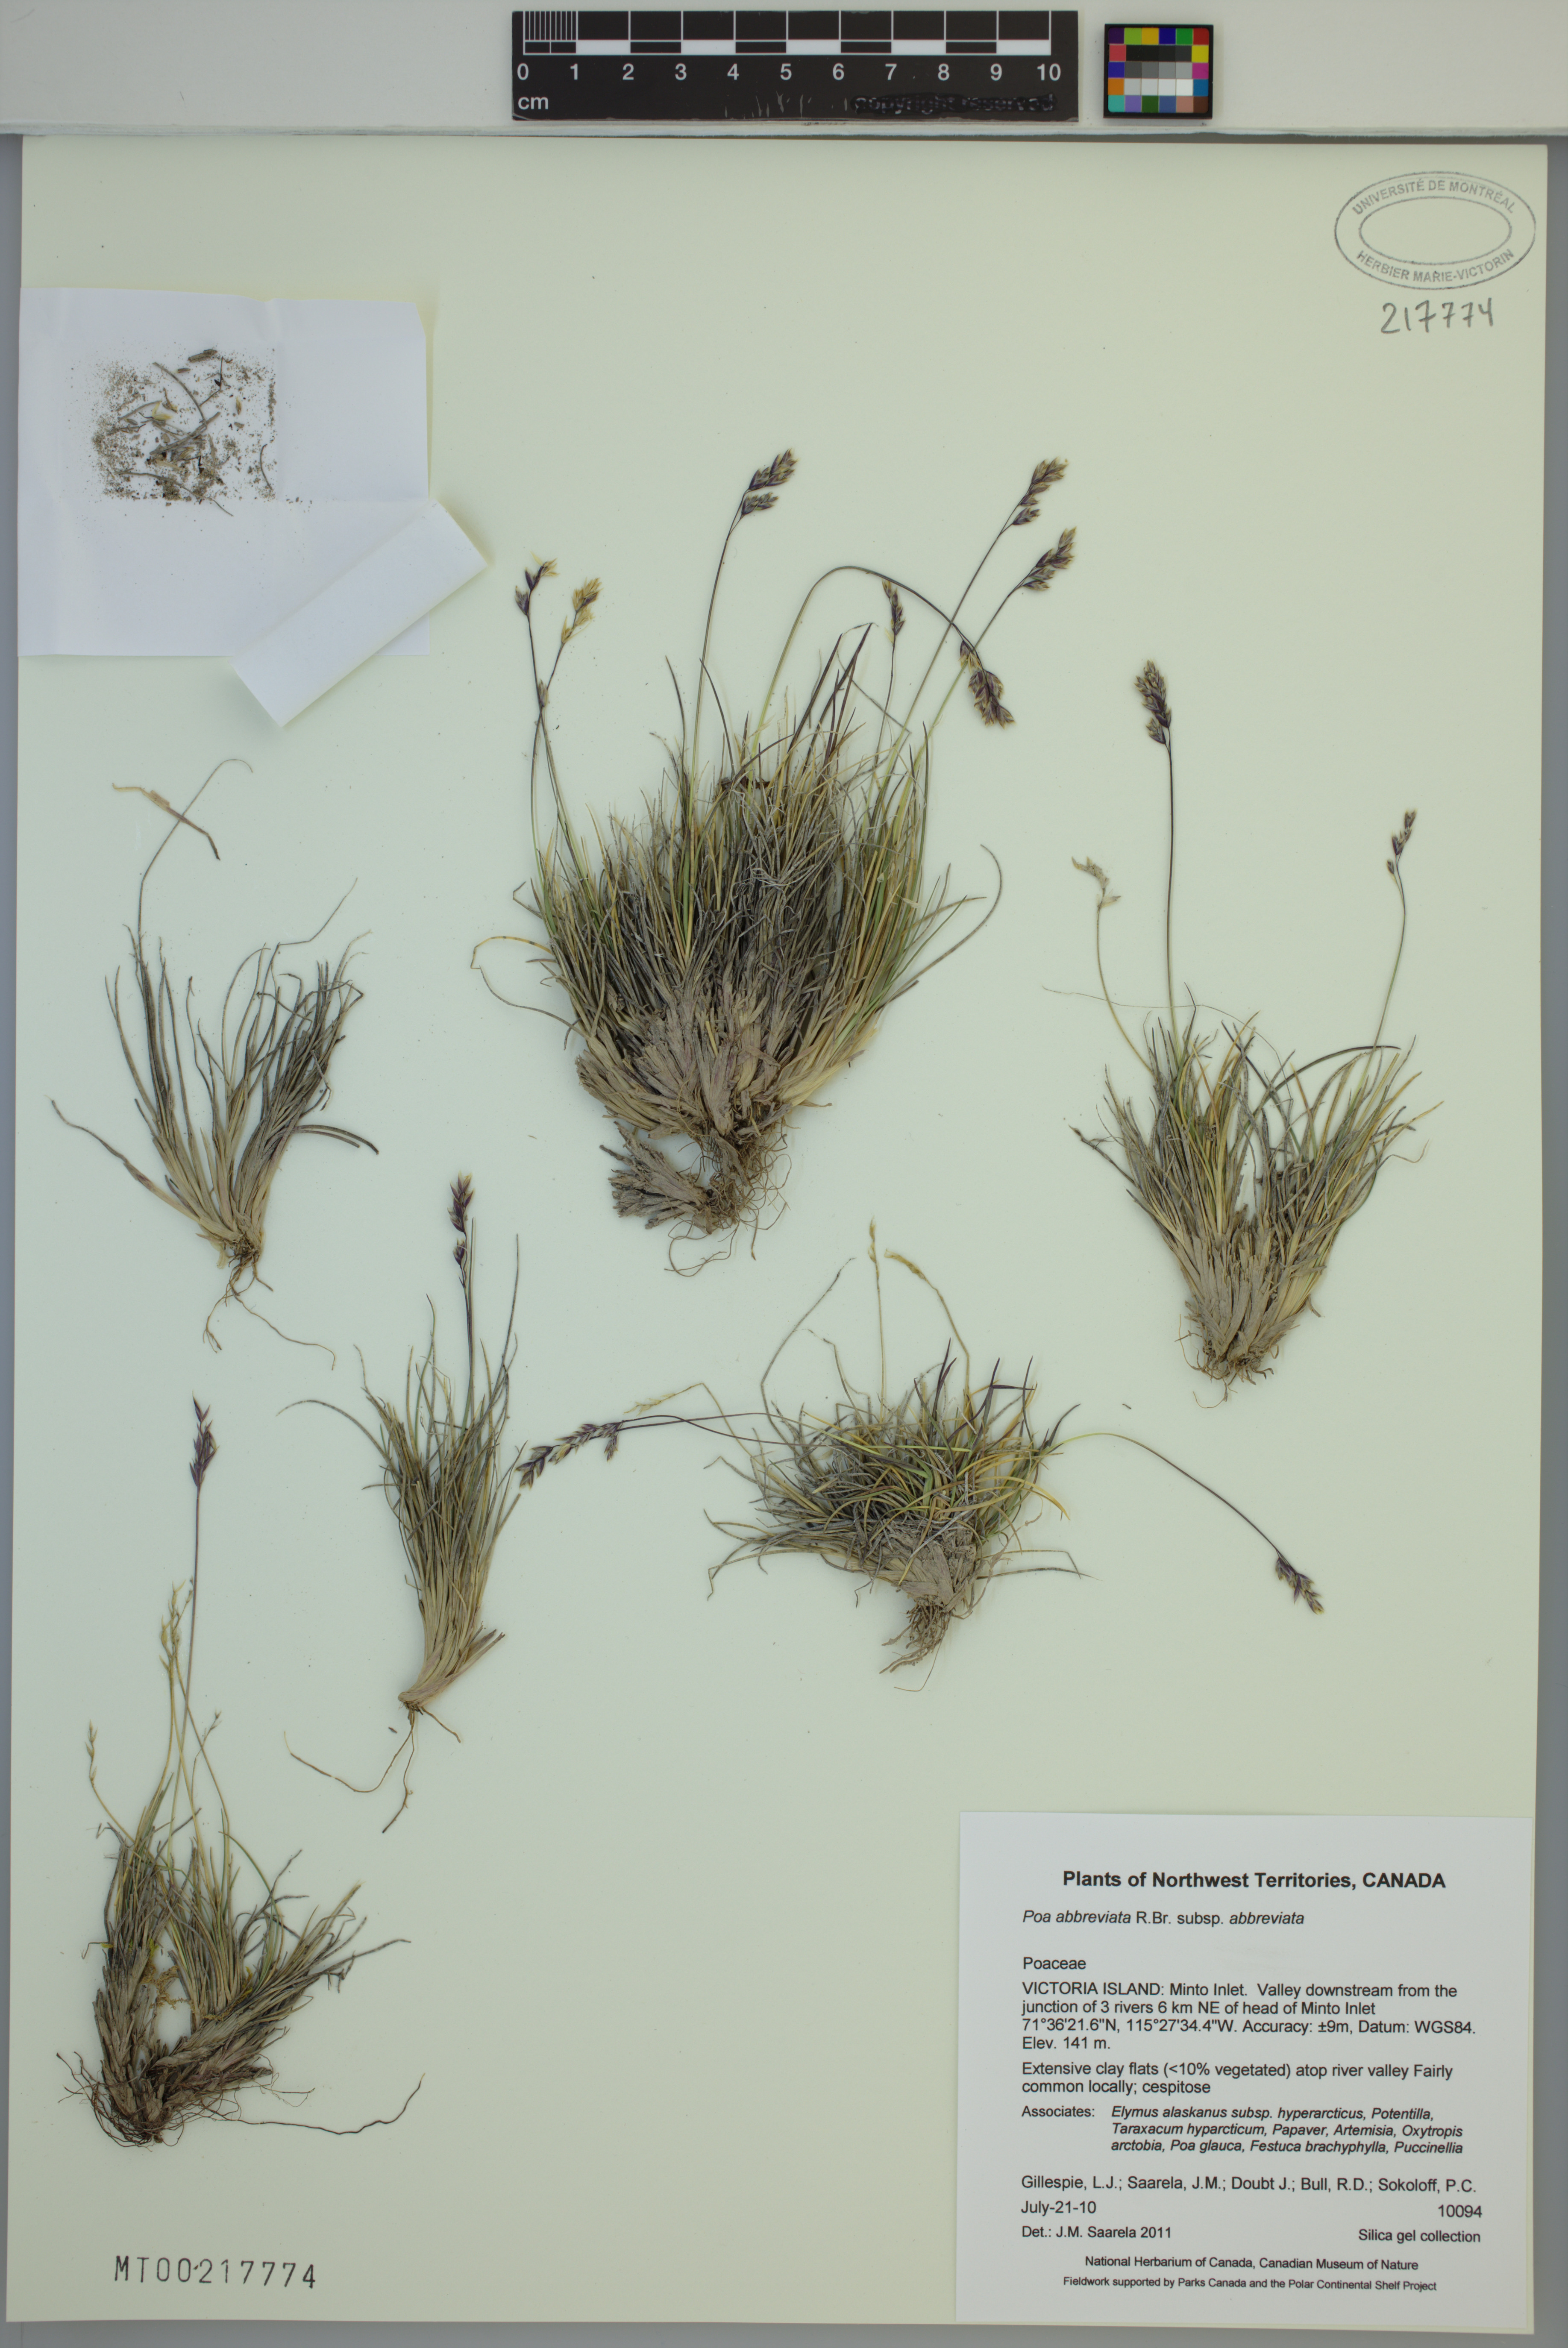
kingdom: Plantae
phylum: Tracheophyta
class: Liliopsida
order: Poales
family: Poaceae
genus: Poa
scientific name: Poa abbreviata
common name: Abbreviated bluegrass
